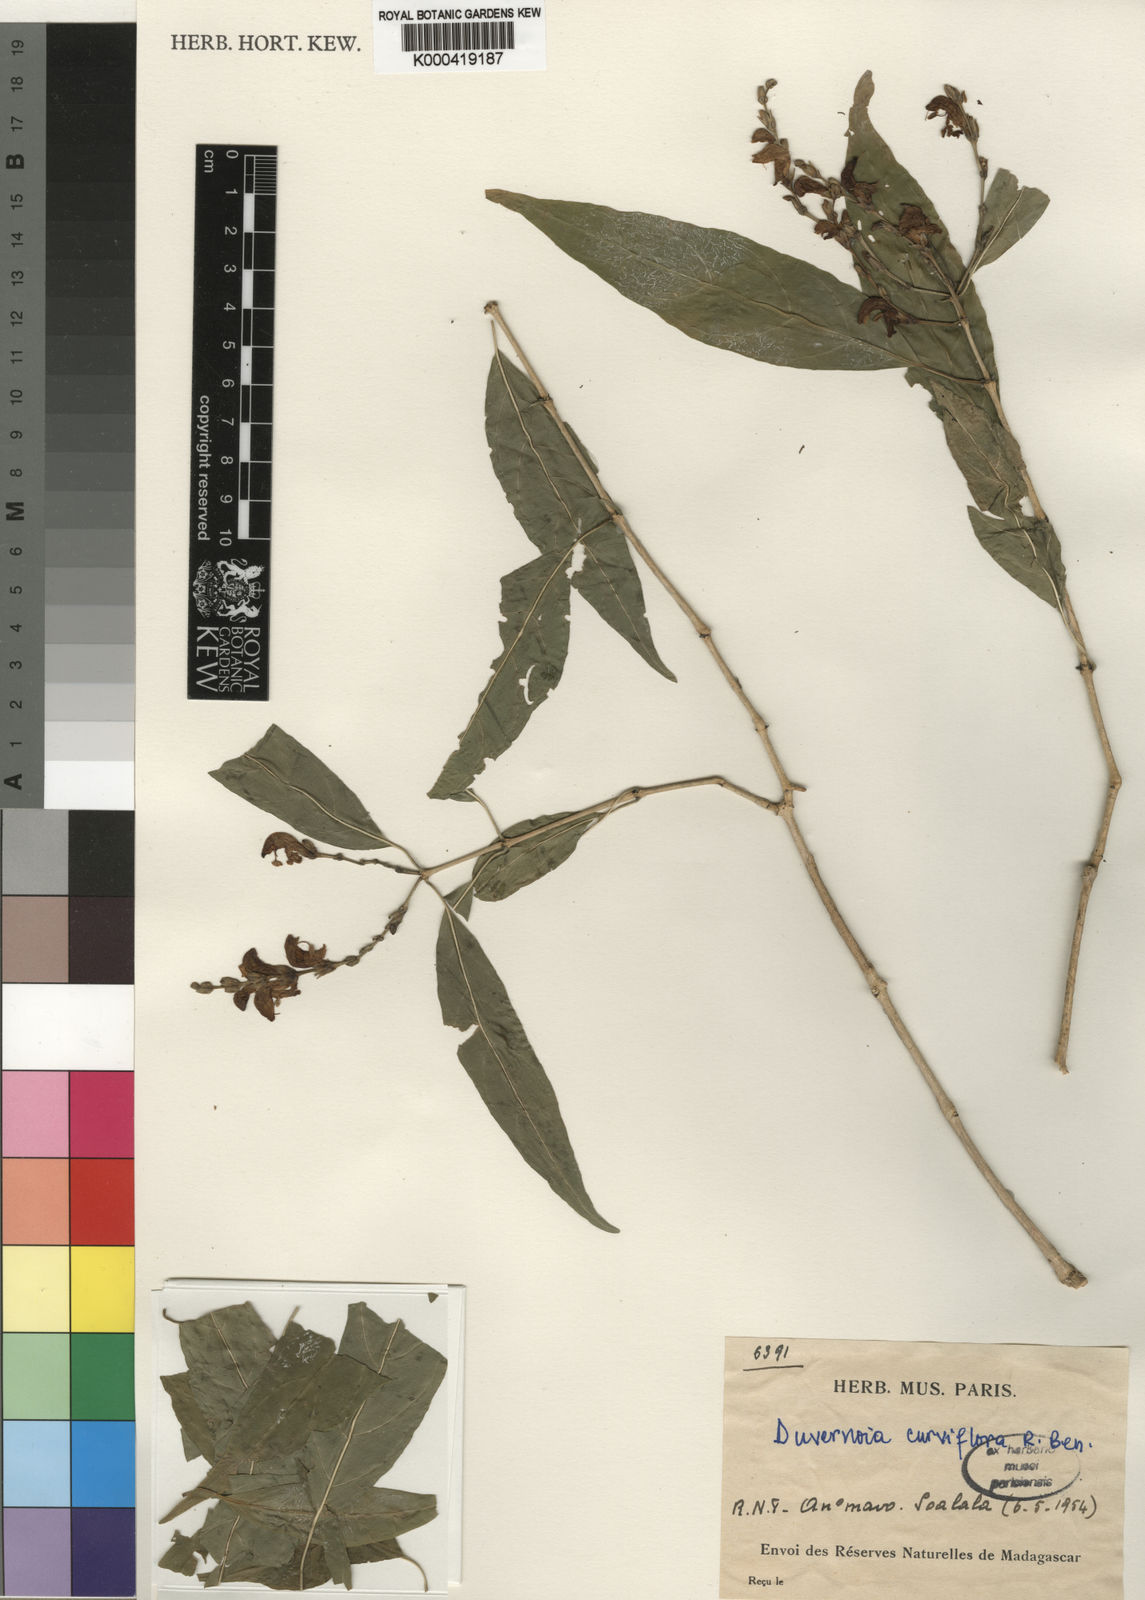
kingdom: Plantae
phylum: Tracheophyta
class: Magnoliopsida
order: Lamiales
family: Acanthaceae
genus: Justicia
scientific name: Justicia
